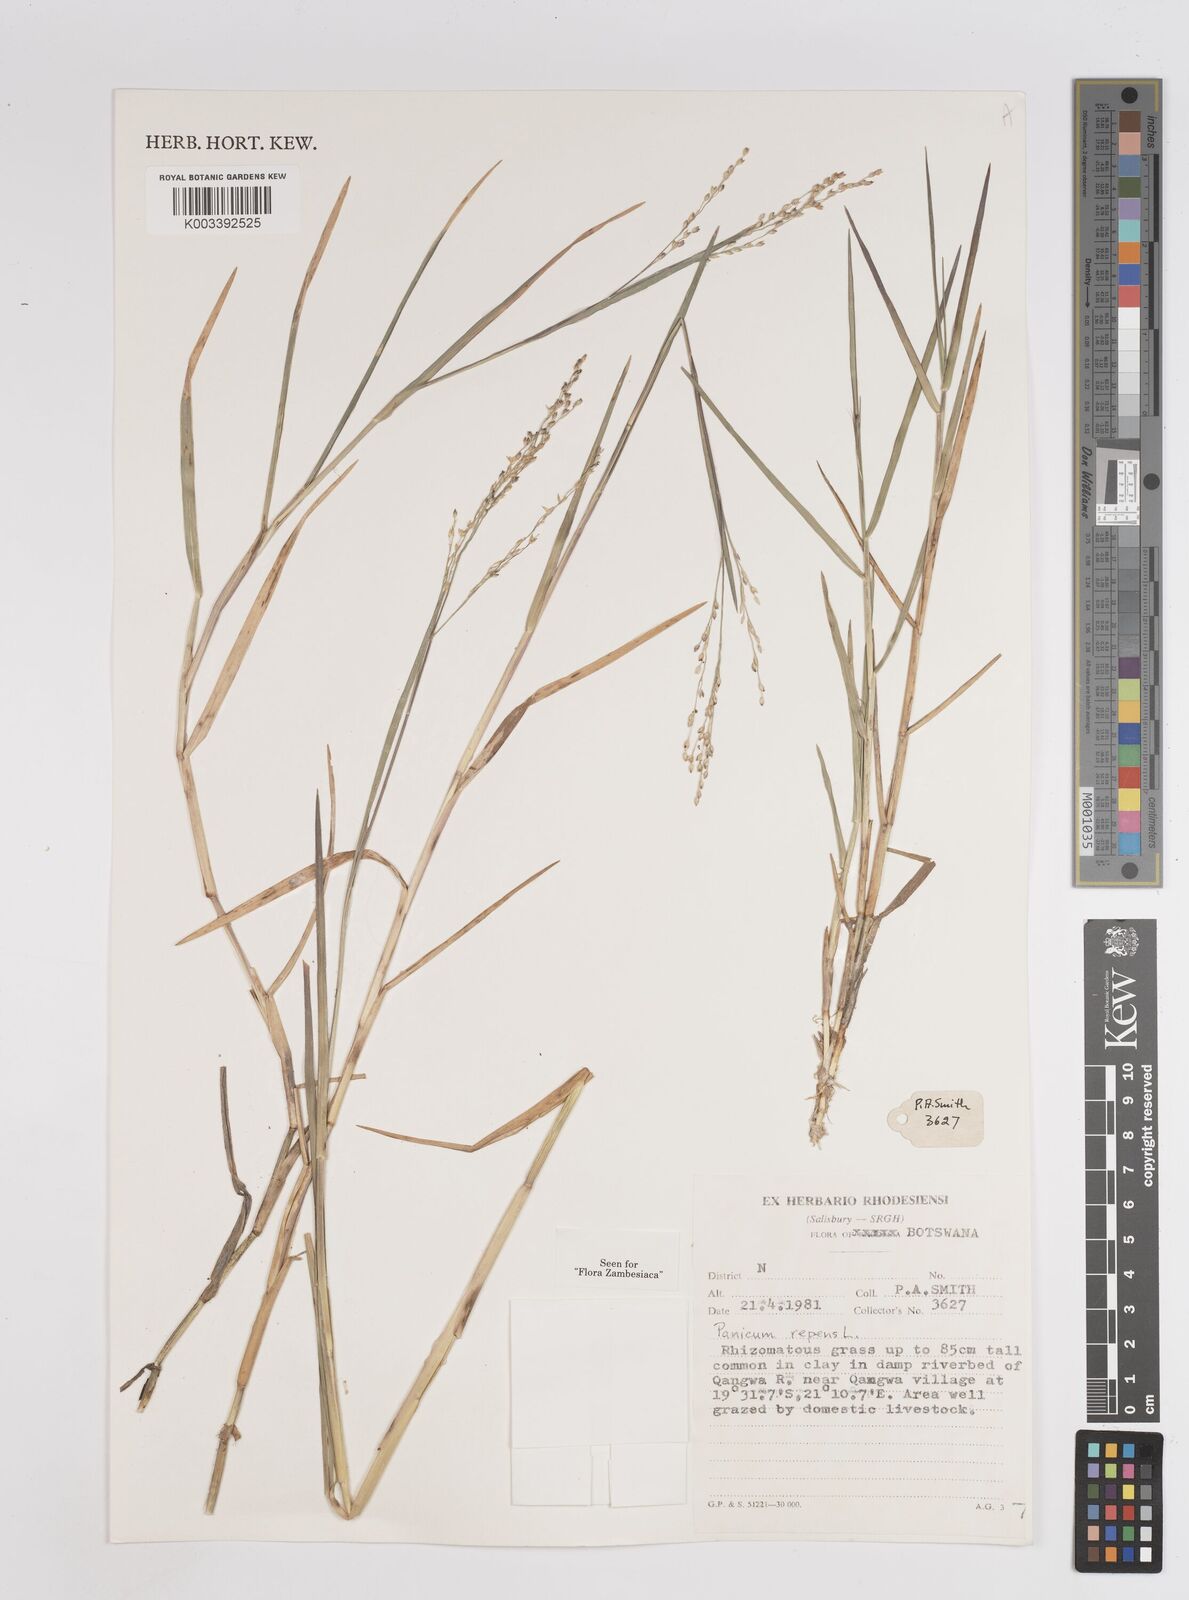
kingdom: Plantae
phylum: Tracheophyta
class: Liliopsida
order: Poales
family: Poaceae
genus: Panicum
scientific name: Panicum repens
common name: Torpedo grass
